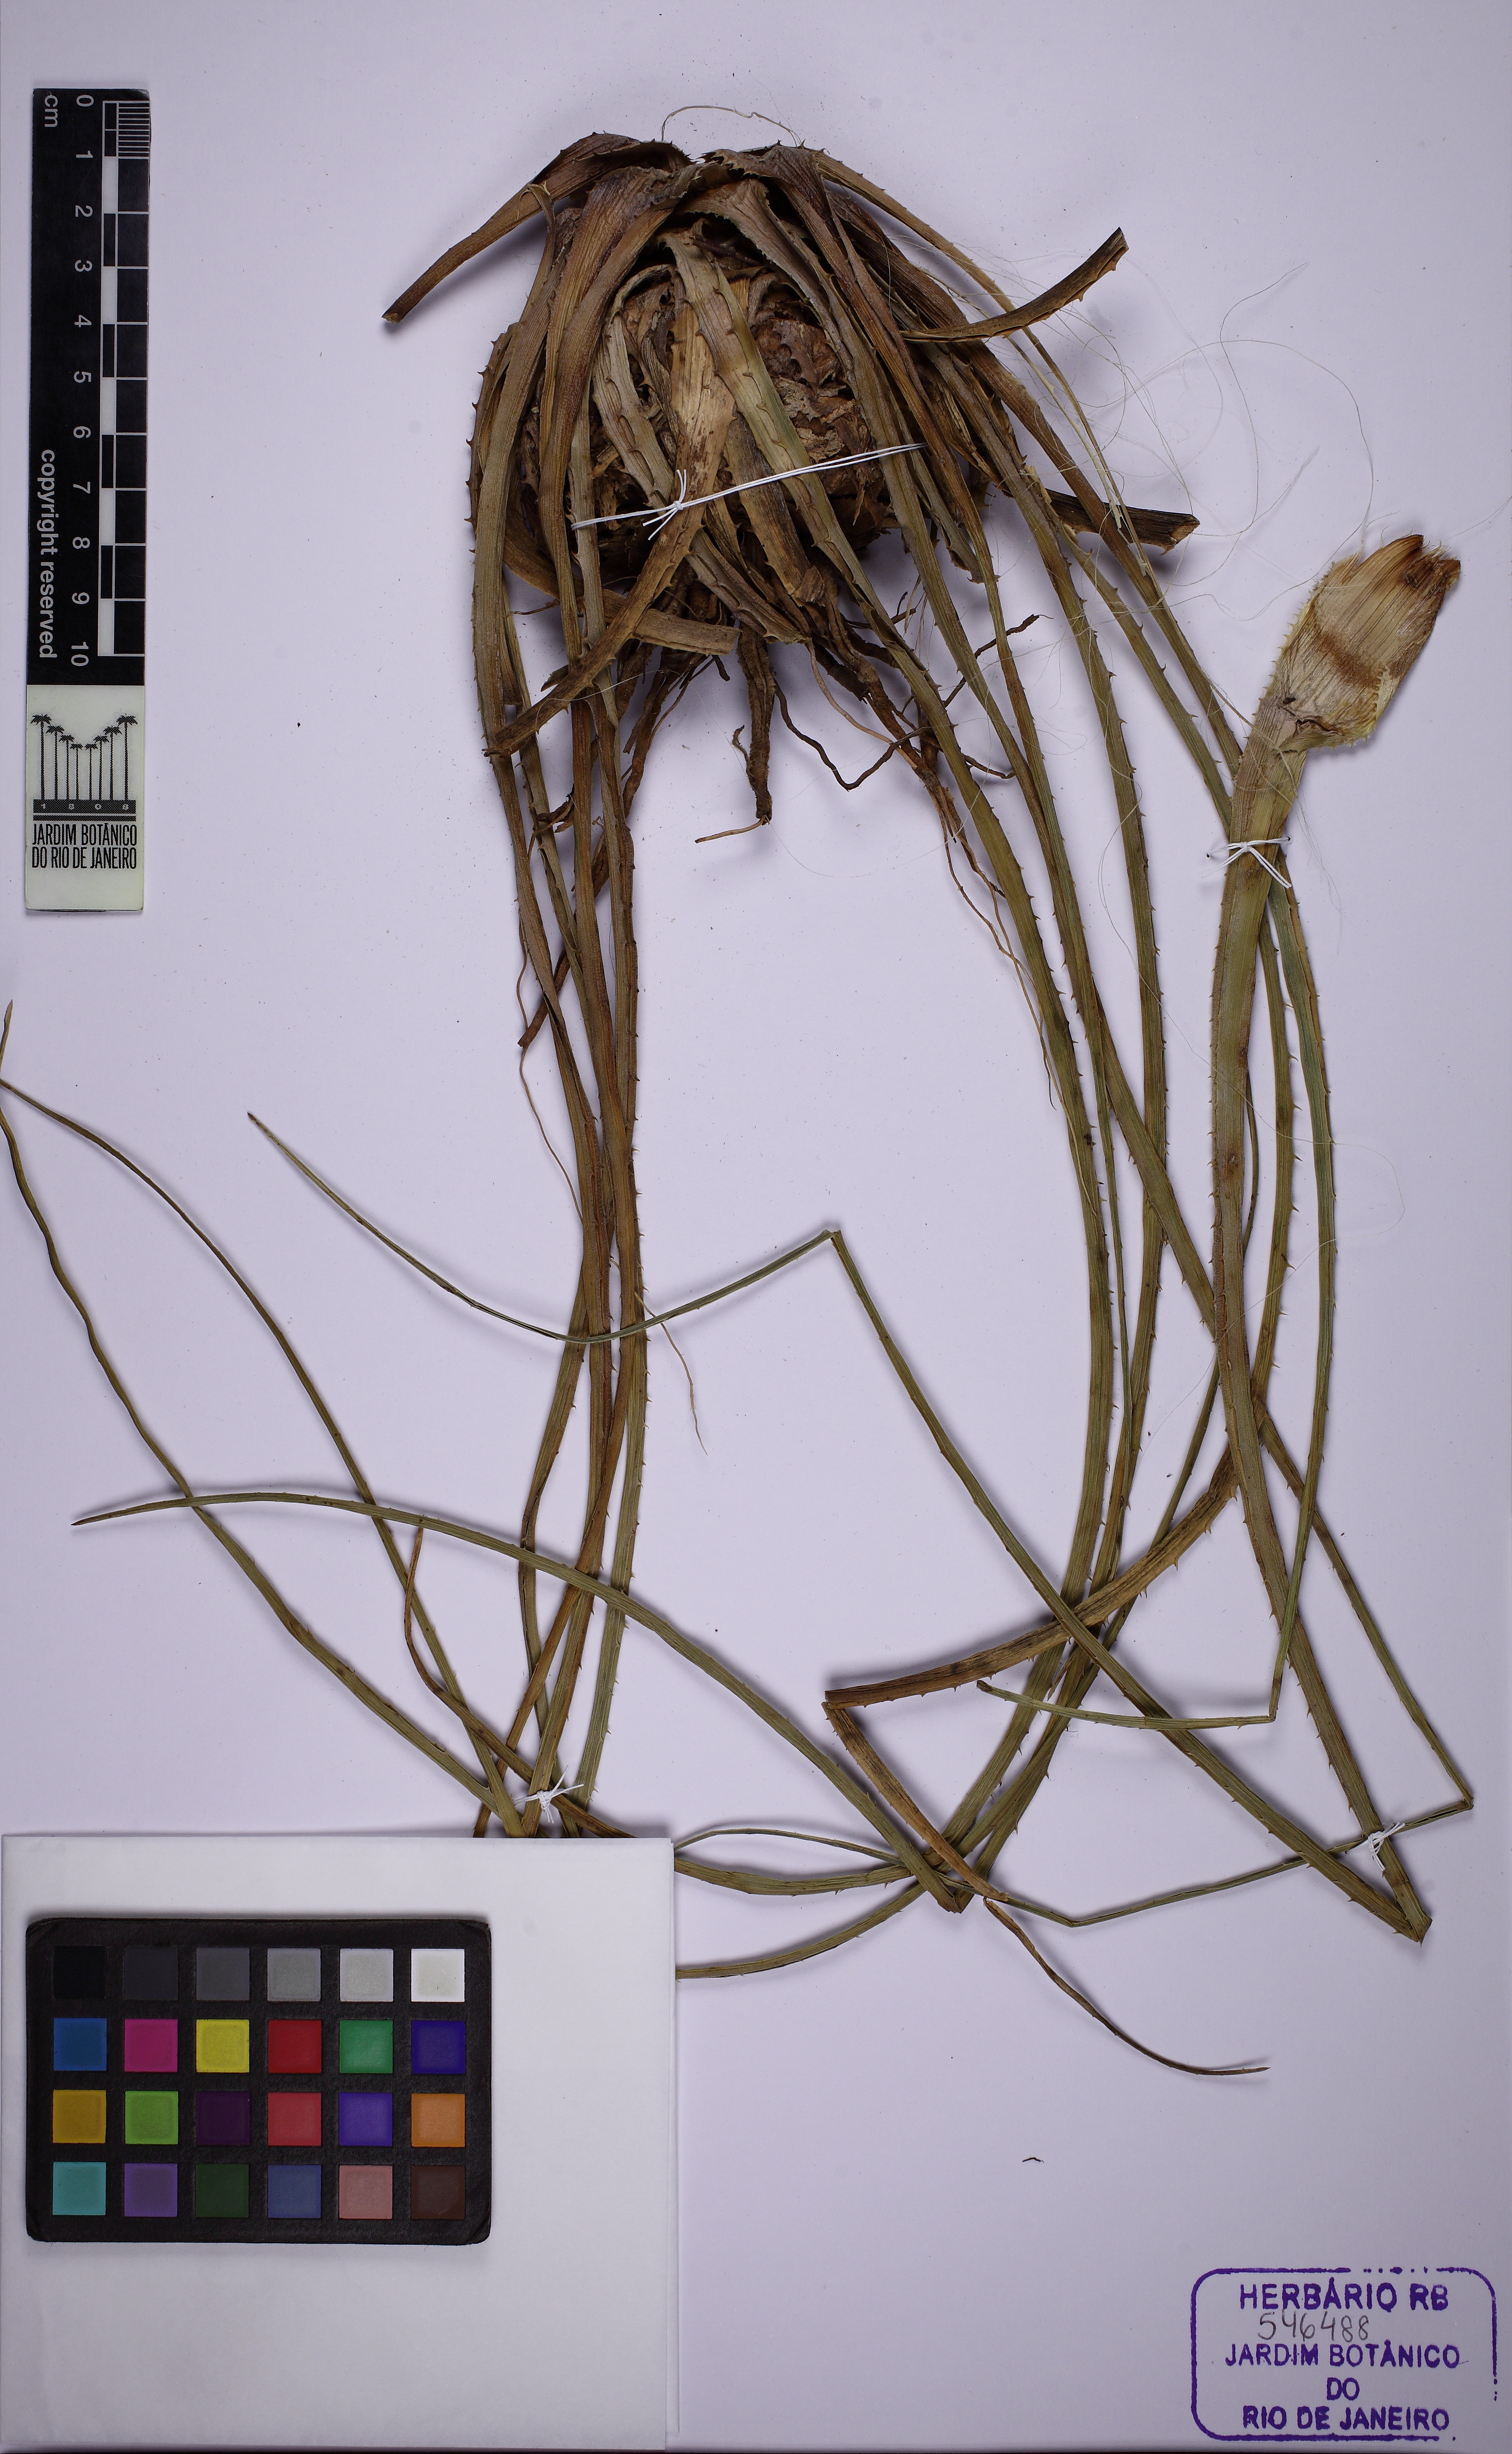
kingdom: Plantae
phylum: Tracheophyta
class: Liliopsida
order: Poales
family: Bromeliaceae
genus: Bromelia
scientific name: Bromelia exigua
